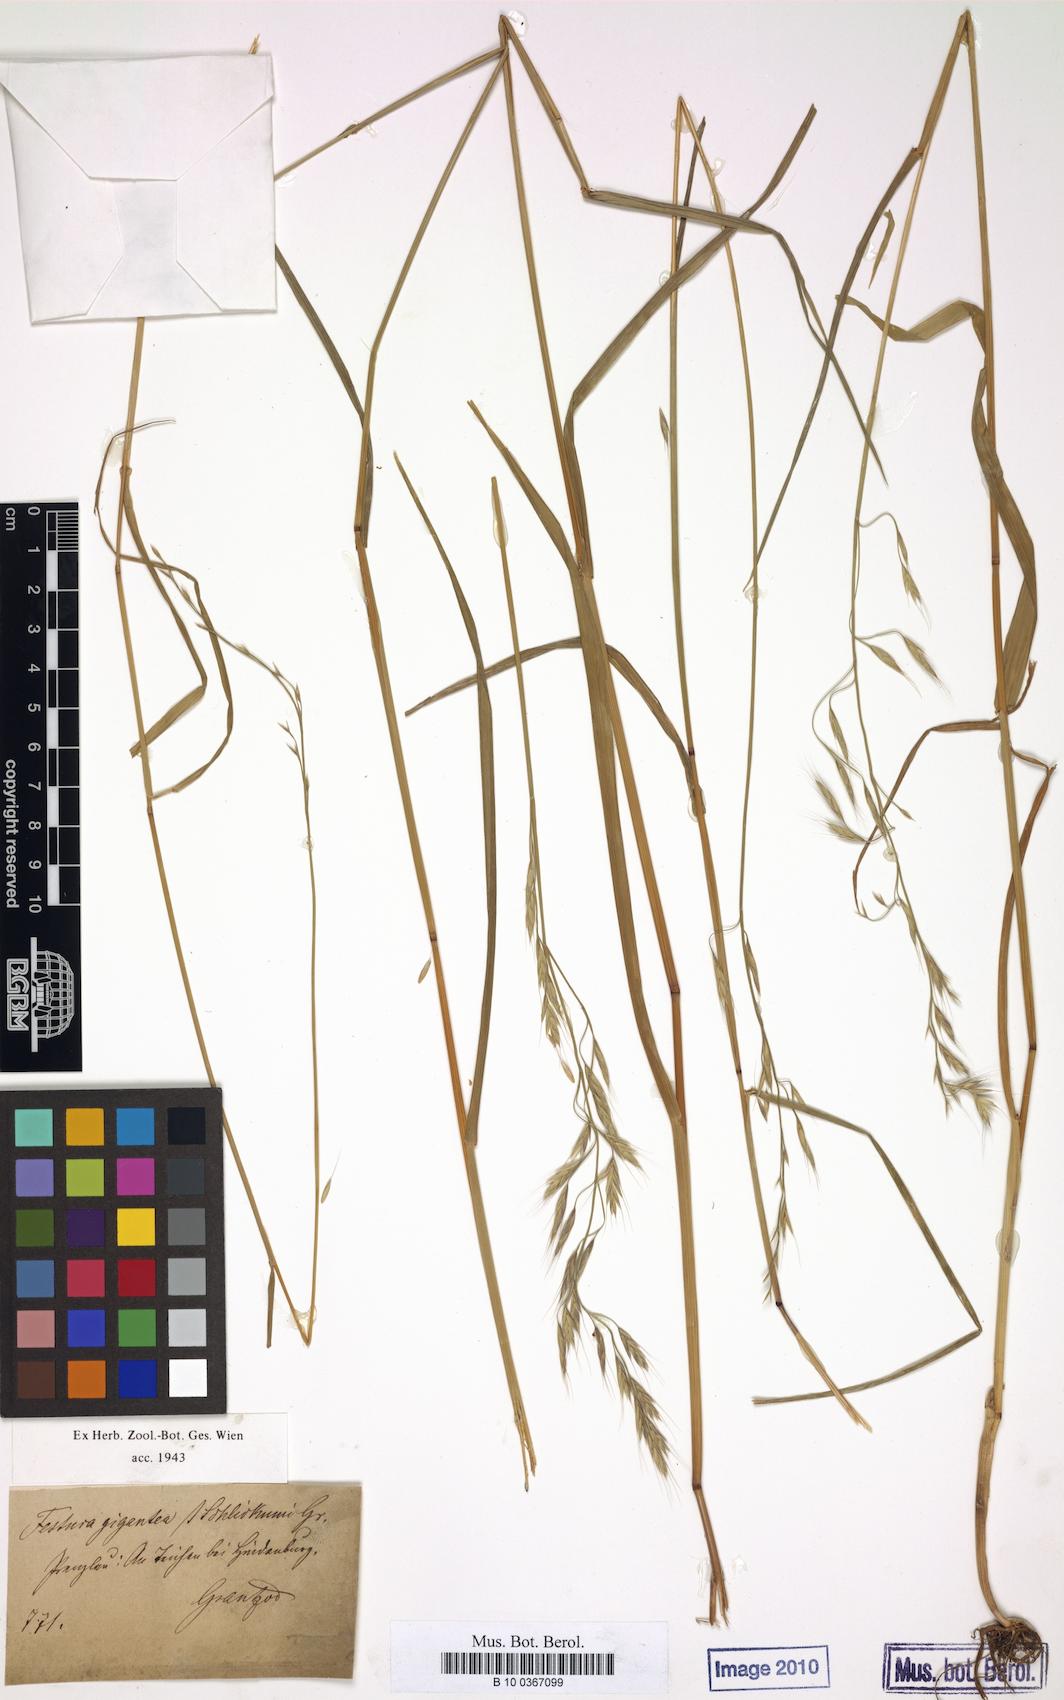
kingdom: Plantae
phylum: Tracheophyta
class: Liliopsida
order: Poales
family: Poaceae
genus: Lolium
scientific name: Lolium schlickumii
